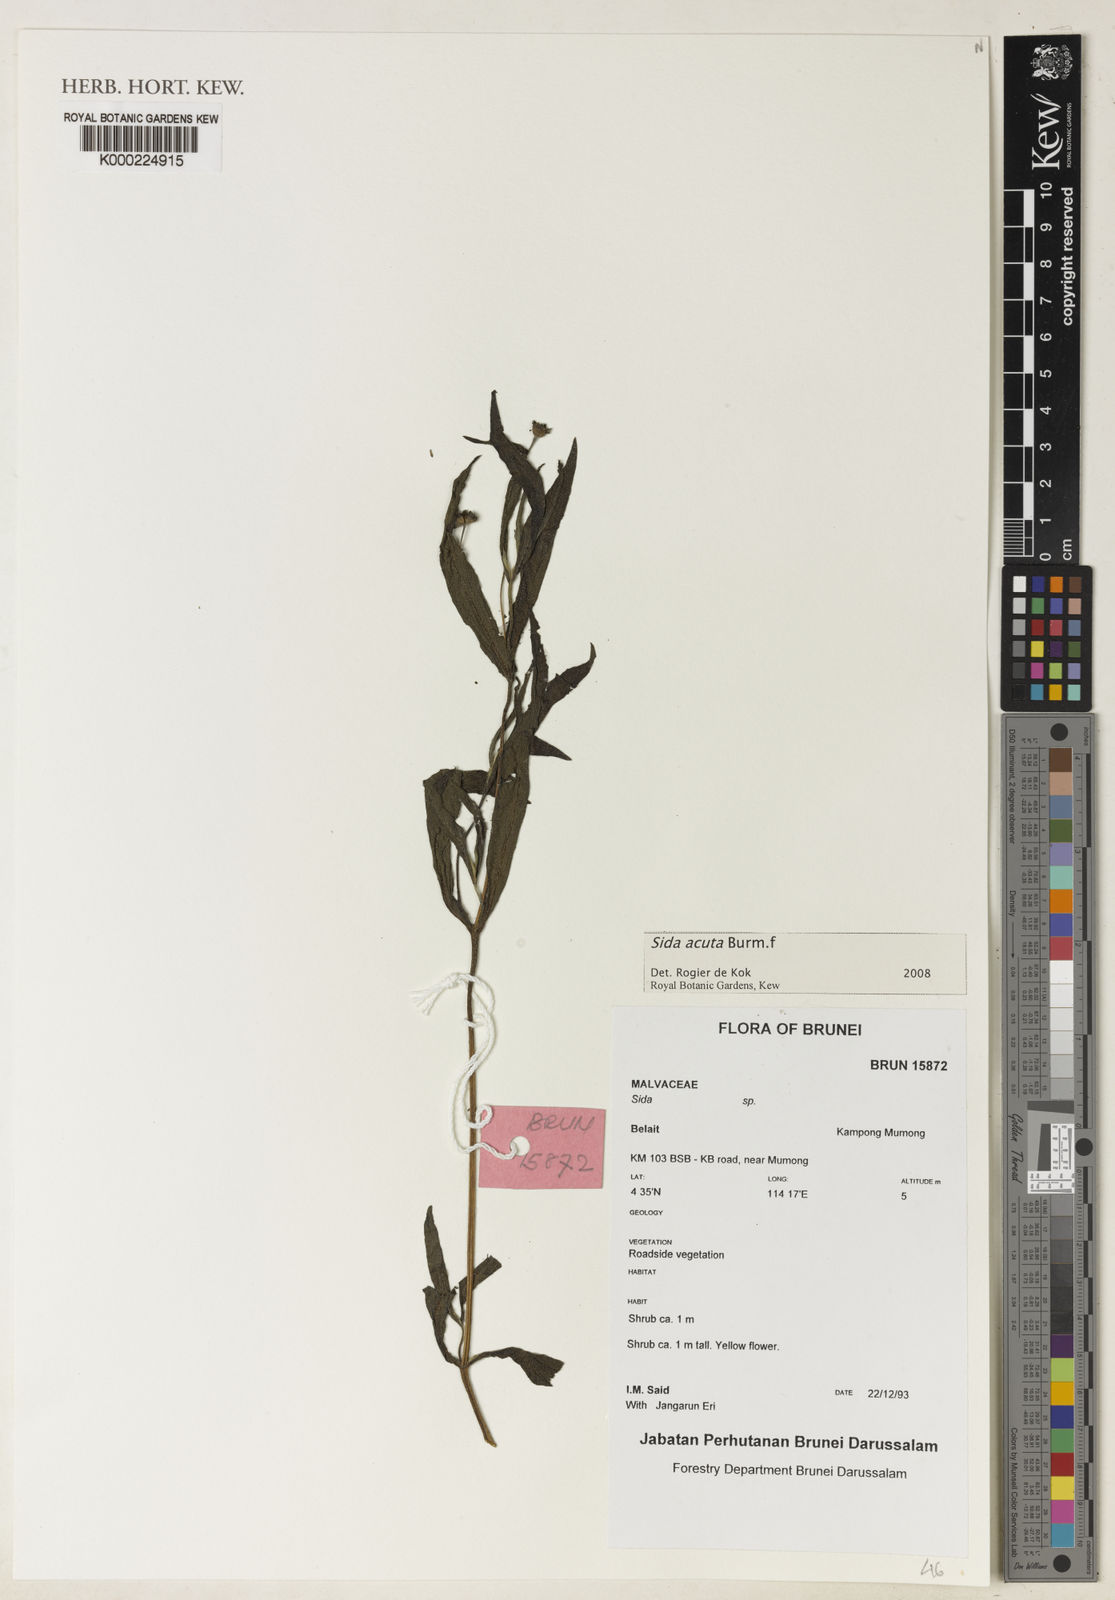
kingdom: Plantae
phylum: Tracheophyta
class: Magnoliopsida
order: Malvales
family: Malvaceae
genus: Sida
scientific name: Sida acuta
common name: Common wireweed
